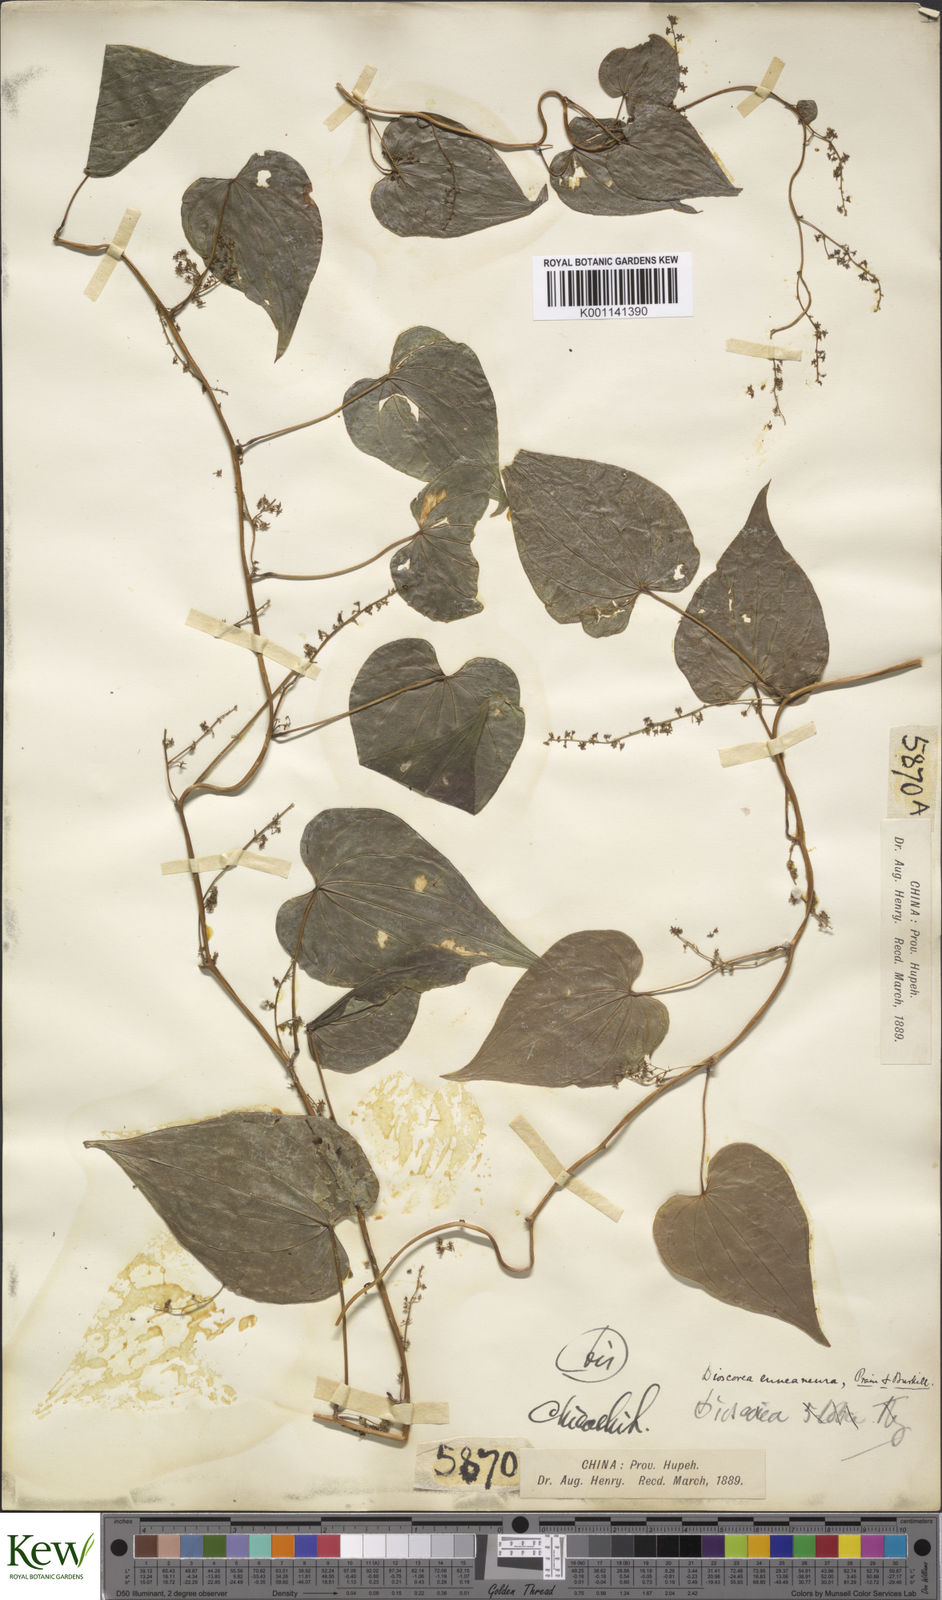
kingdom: Plantae
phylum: Tracheophyta
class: Liliopsida
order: Dioscoreales
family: Dioscoreaceae
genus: Dioscorea
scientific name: Dioscorea tokoro
